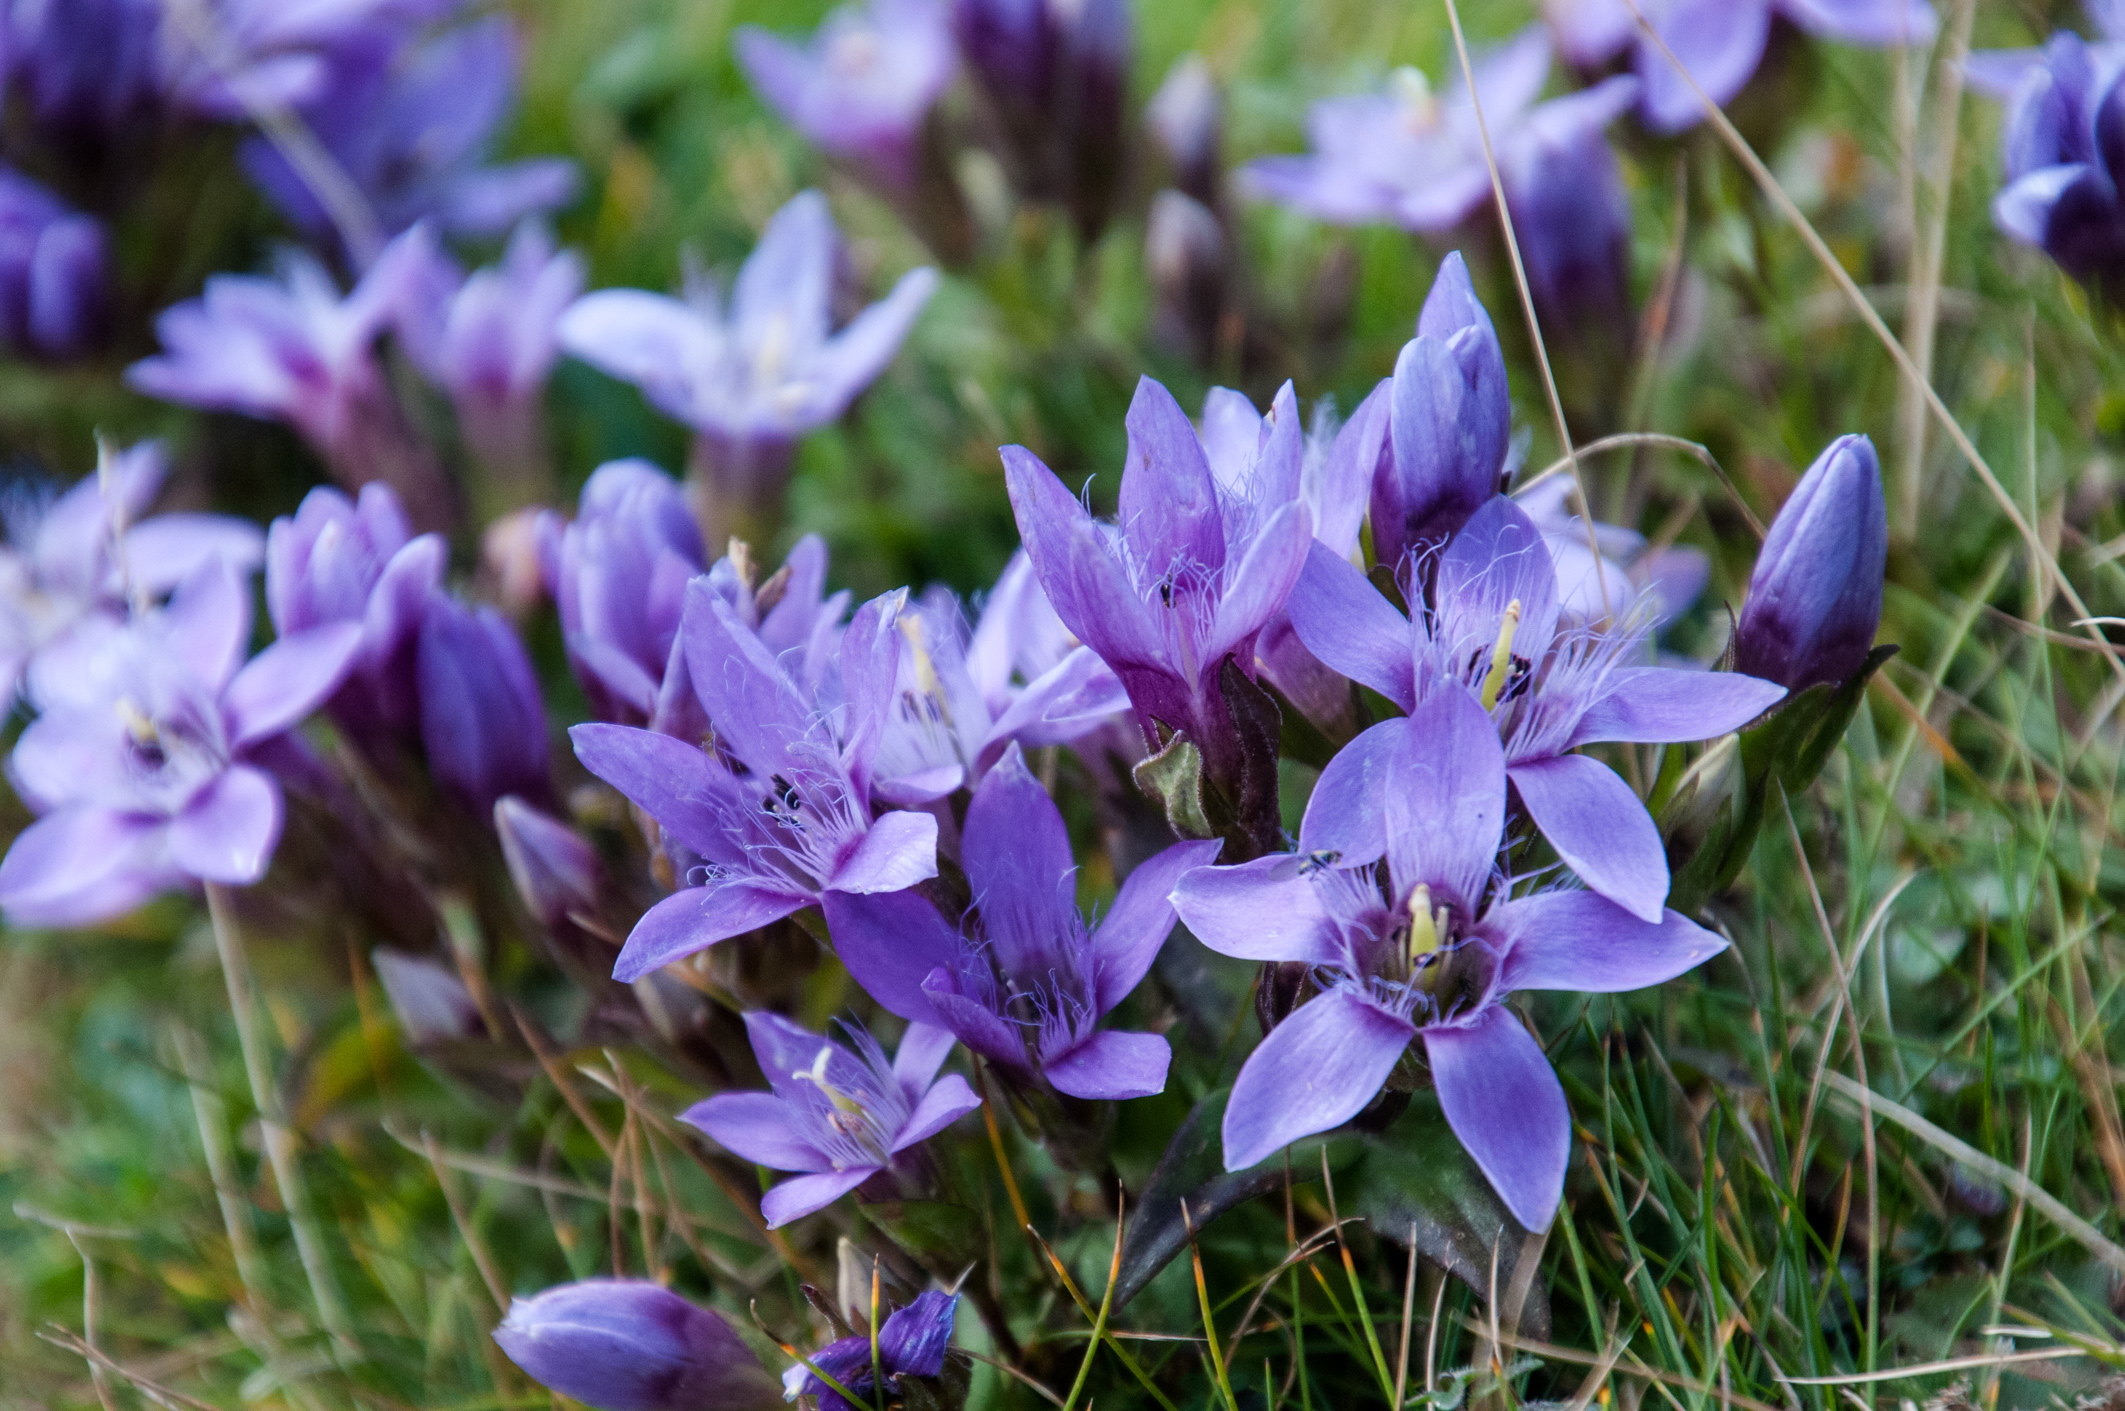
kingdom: Plantae
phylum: Tracheophyta
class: Magnoliopsida
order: Gentianales
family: Gentianaceae
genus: Gentianopsis
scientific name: Gentianopsis ciliata
